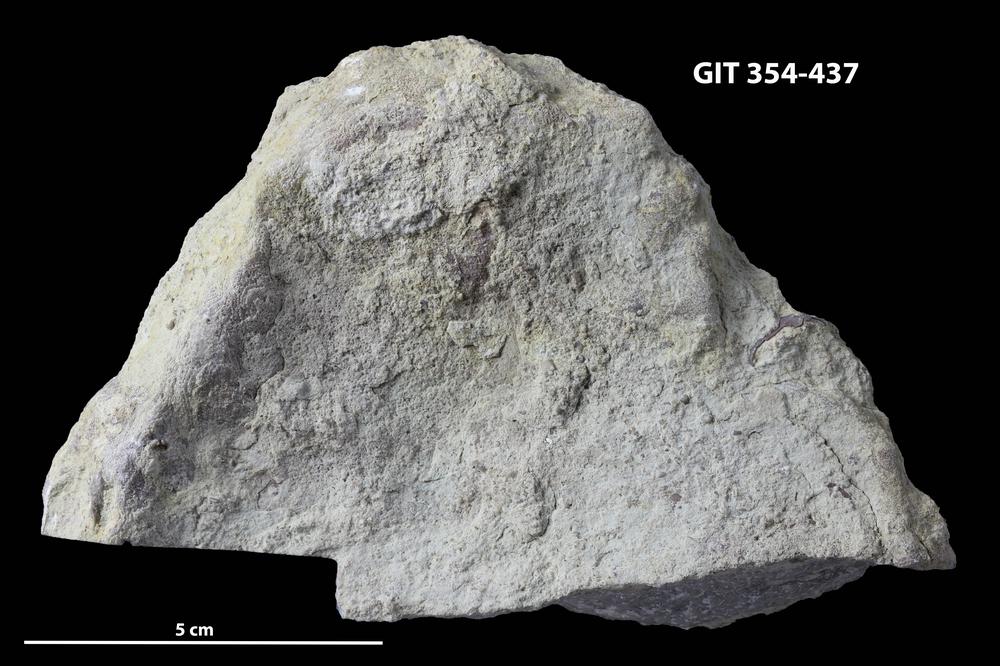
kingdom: Animalia
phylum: Porifera
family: Clathrodictyidae
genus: Clathrodictyon
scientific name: Clathrodictyon Stromatopora variolaris
